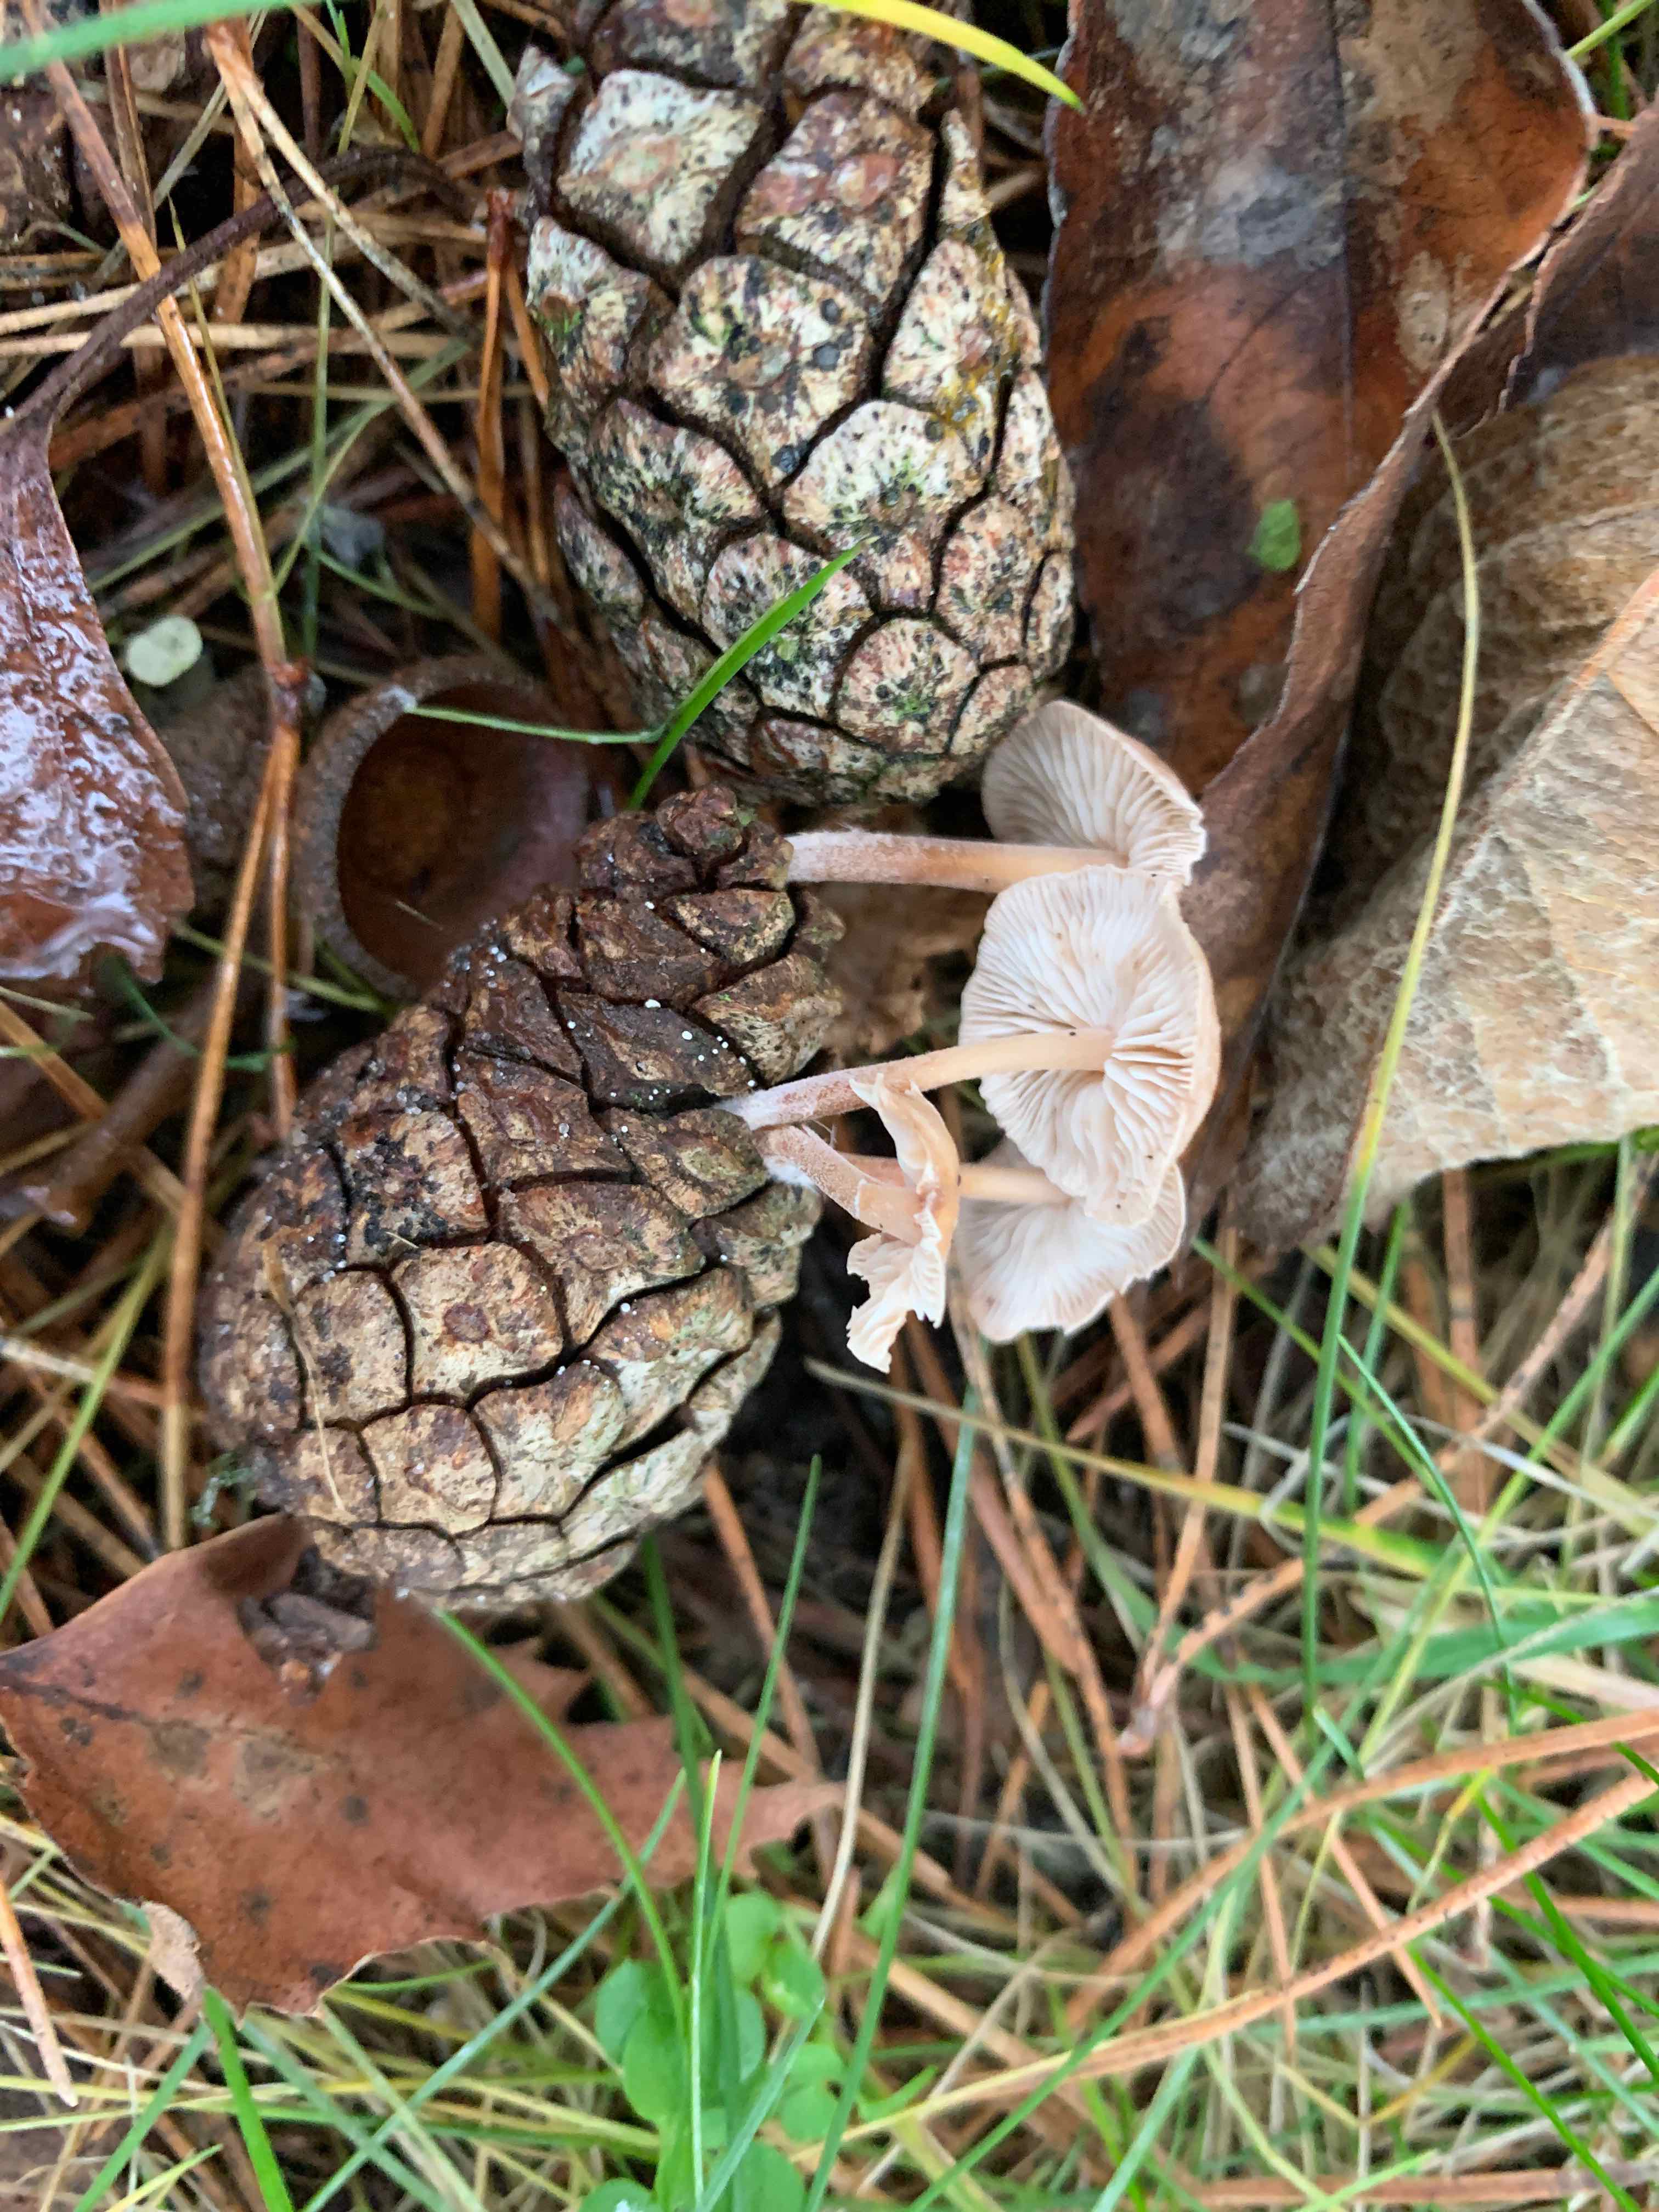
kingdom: Fungi
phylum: Basidiomycota
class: Agaricomycetes
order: Agaricales
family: Marasmiaceae
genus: Baeospora
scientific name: Baeospora myosura
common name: koglebruskhat
